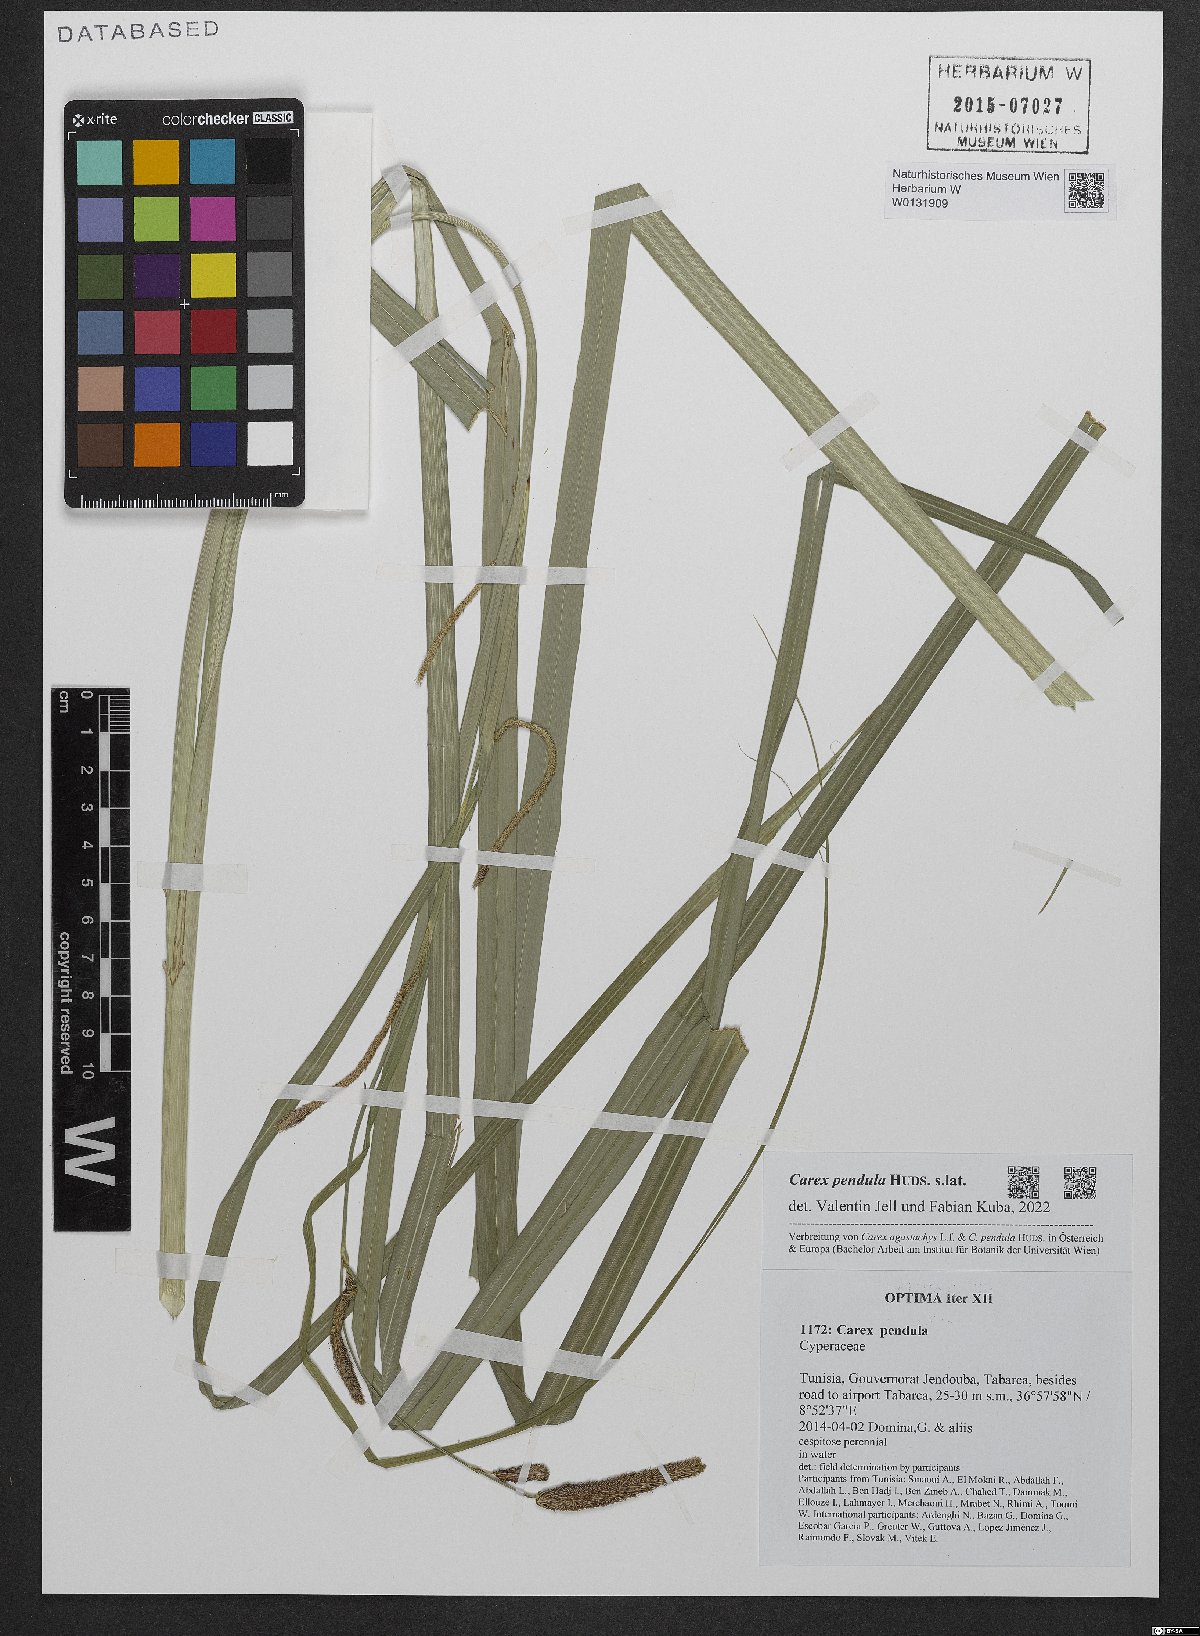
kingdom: Plantae
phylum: Tracheophyta
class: Liliopsida
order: Poales
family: Cyperaceae
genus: Carex
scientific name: Carex pendula
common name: Pendulous sedge
